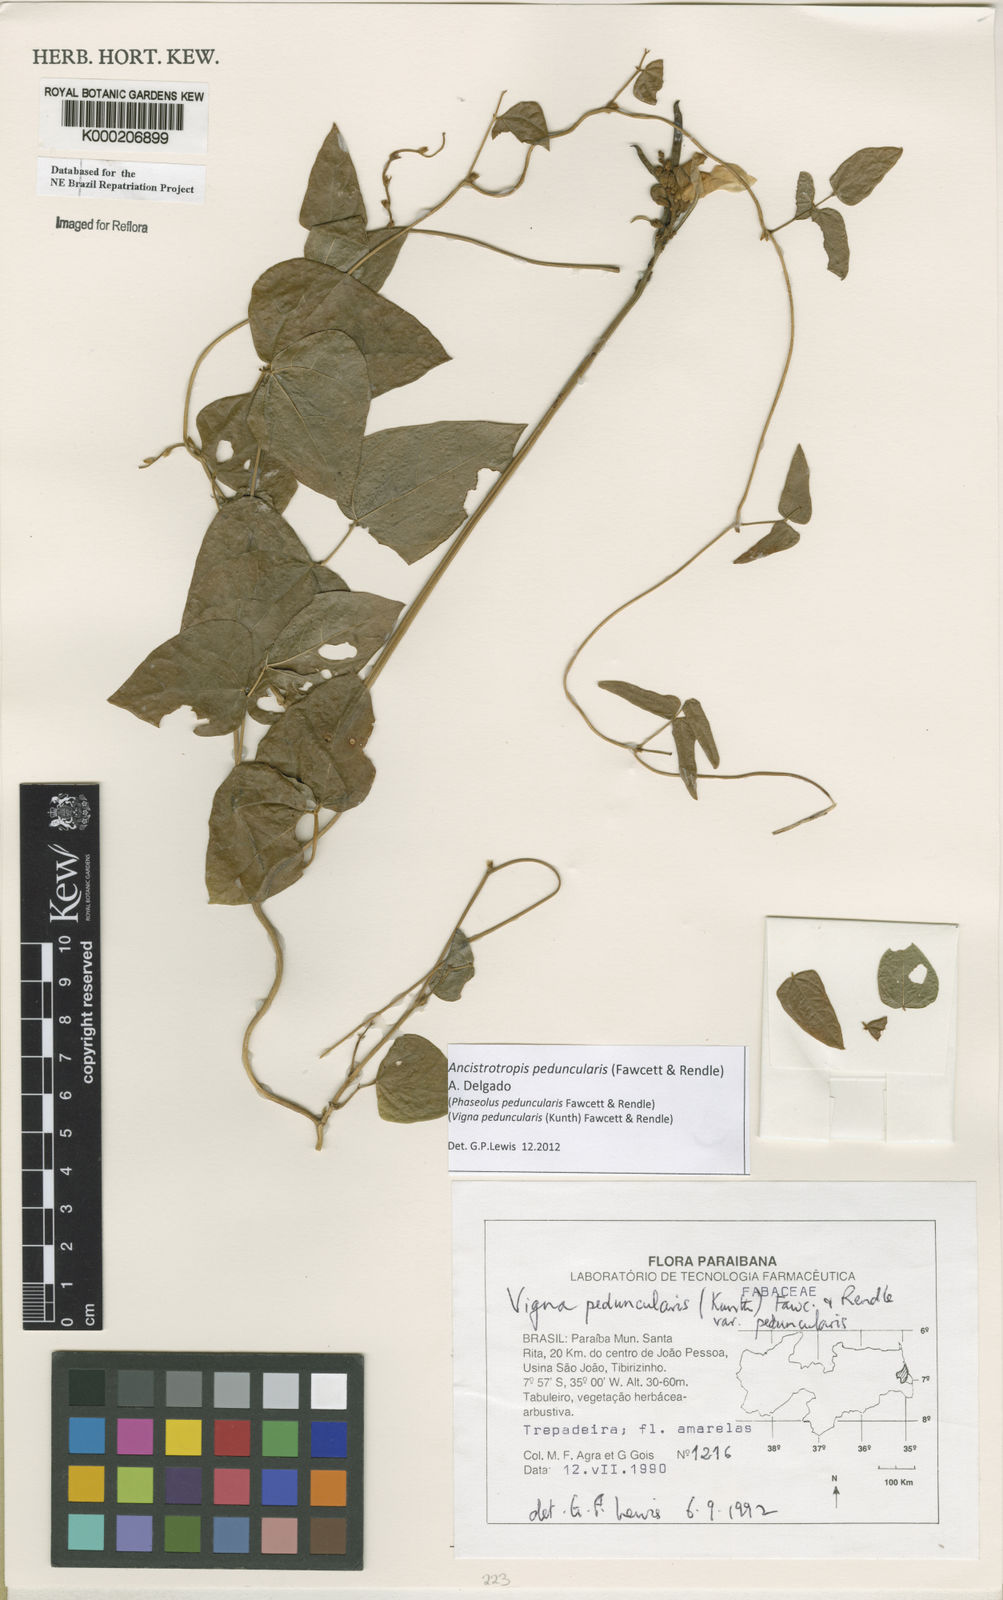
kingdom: Plantae
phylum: Tracheophyta
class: Magnoliopsida
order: Fabales
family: Fabaceae
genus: Ancistrotropis
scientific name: Ancistrotropis peduncularis
